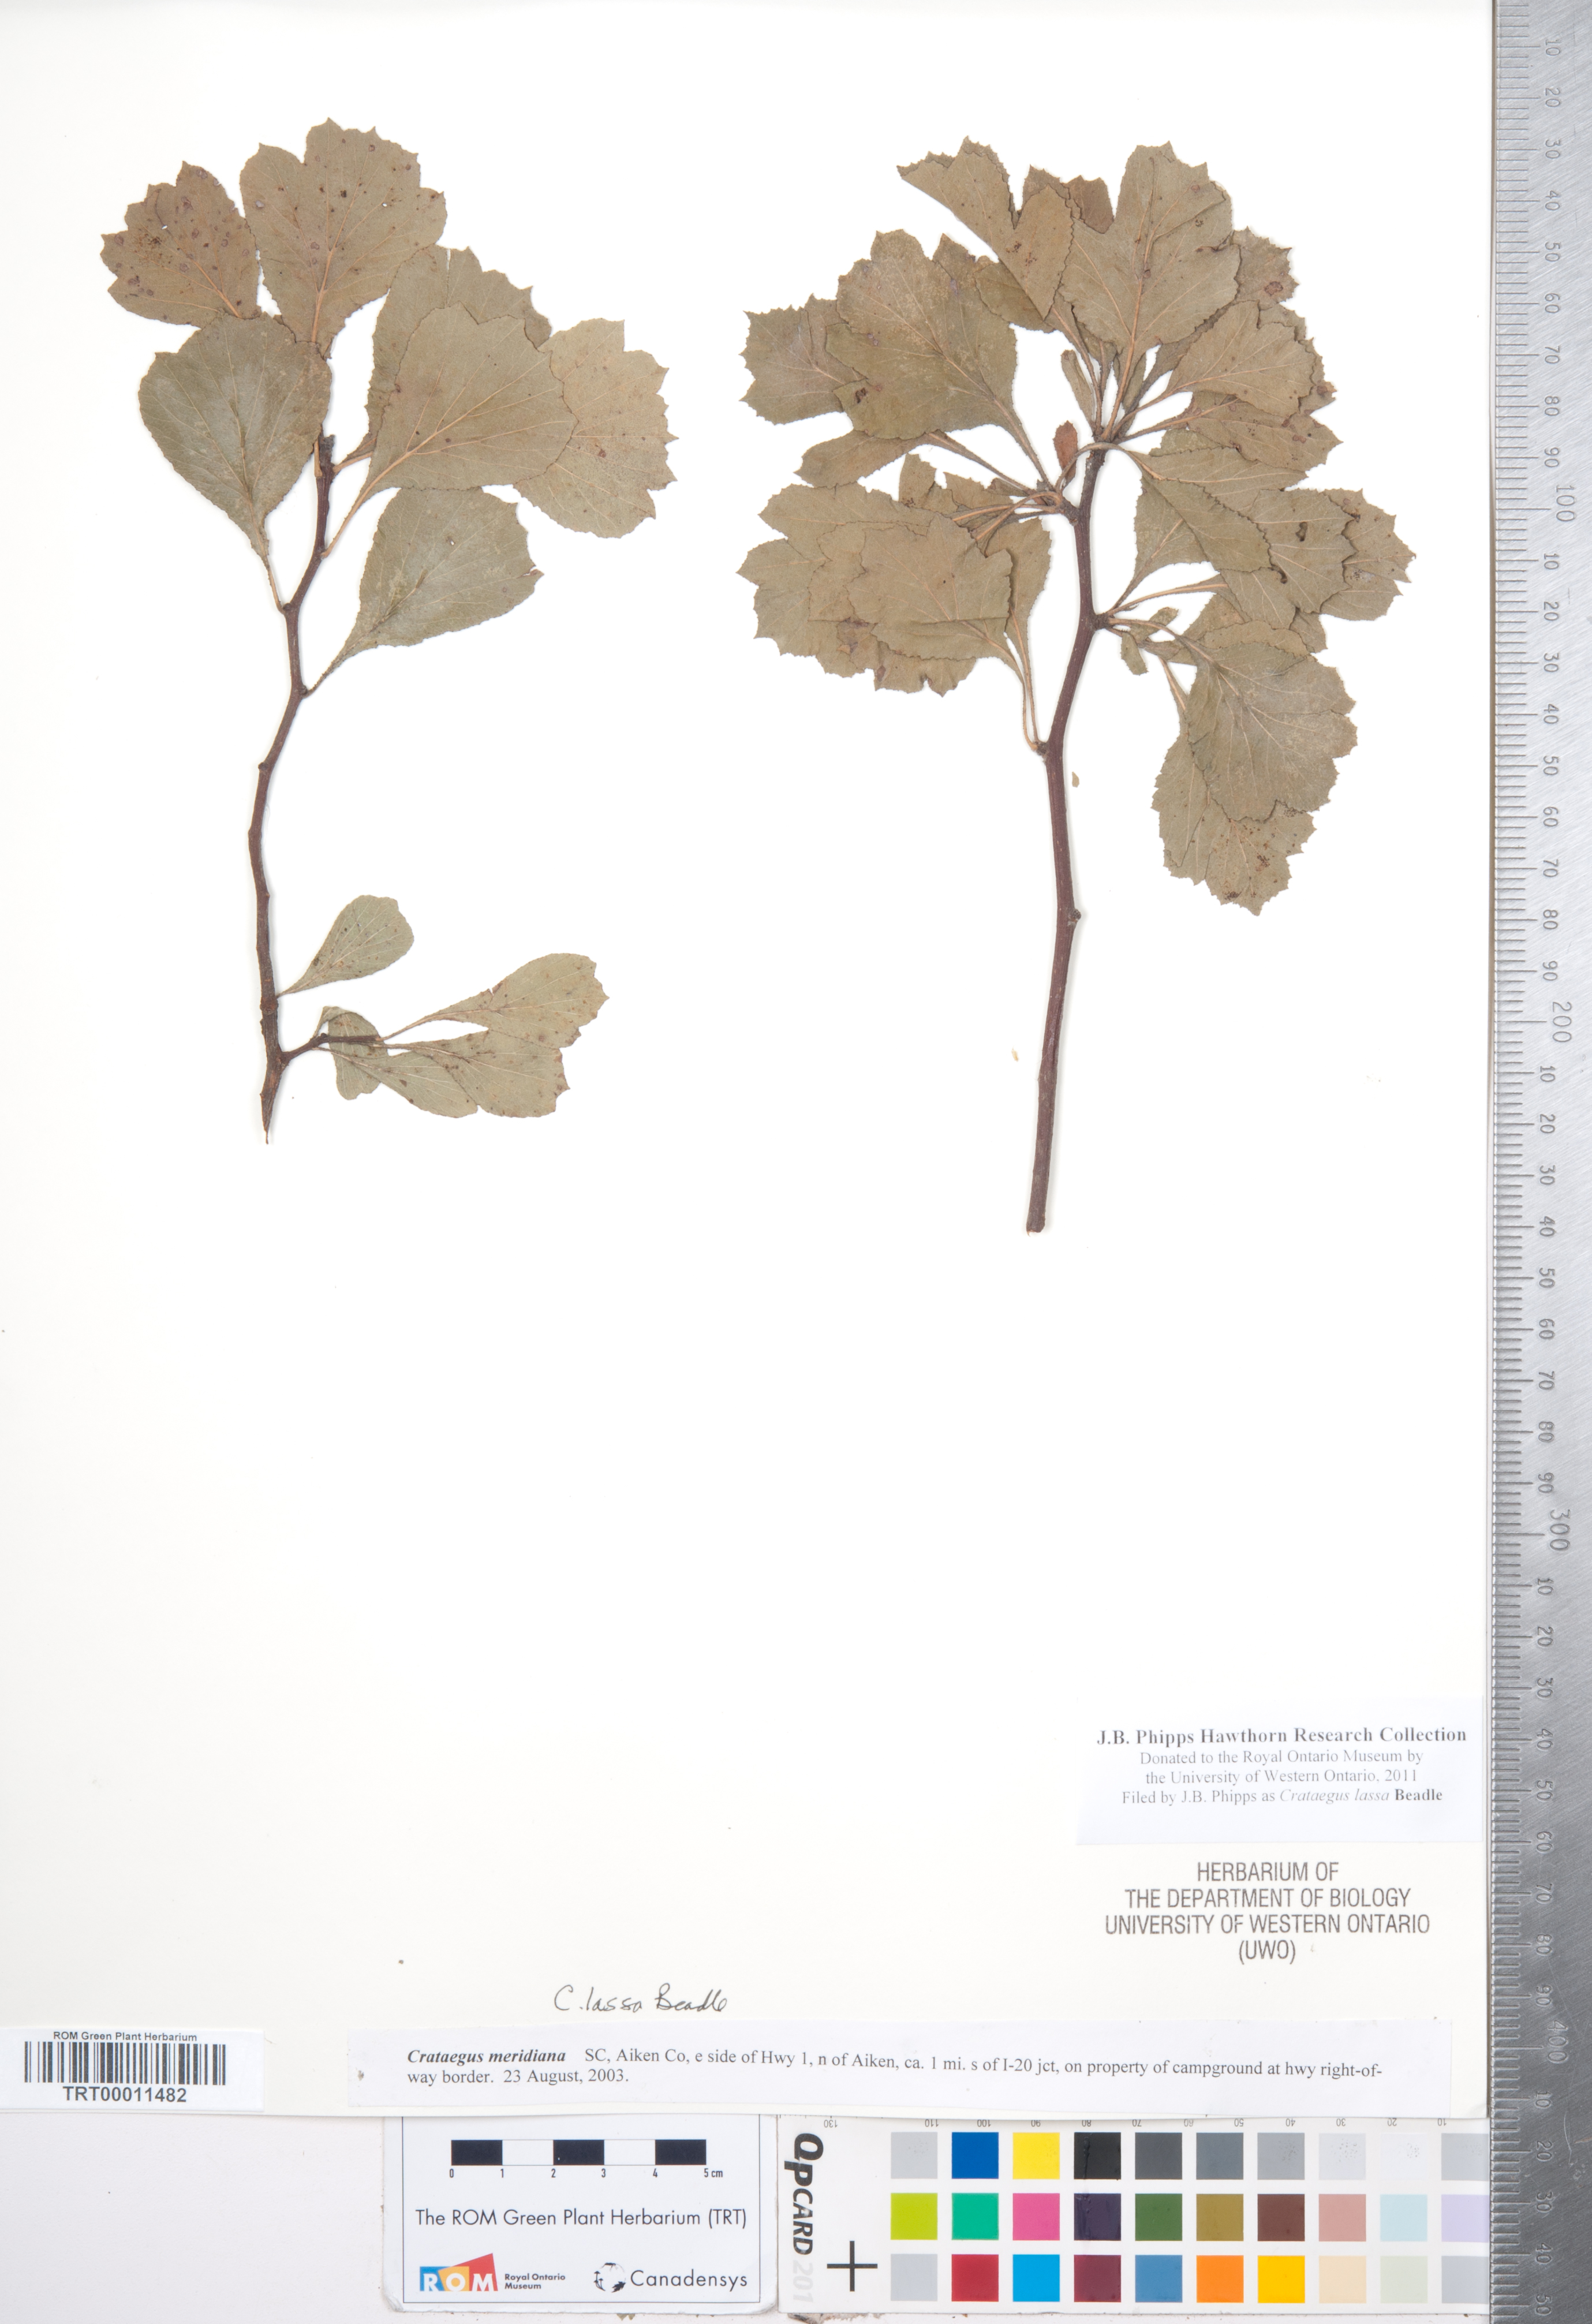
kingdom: Plantae
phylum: Tracheophyta
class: Magnoliopsida
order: Rosales
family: Rosaceae
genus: Crataegus
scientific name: Crataegus lassa
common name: Florida hawthorn
